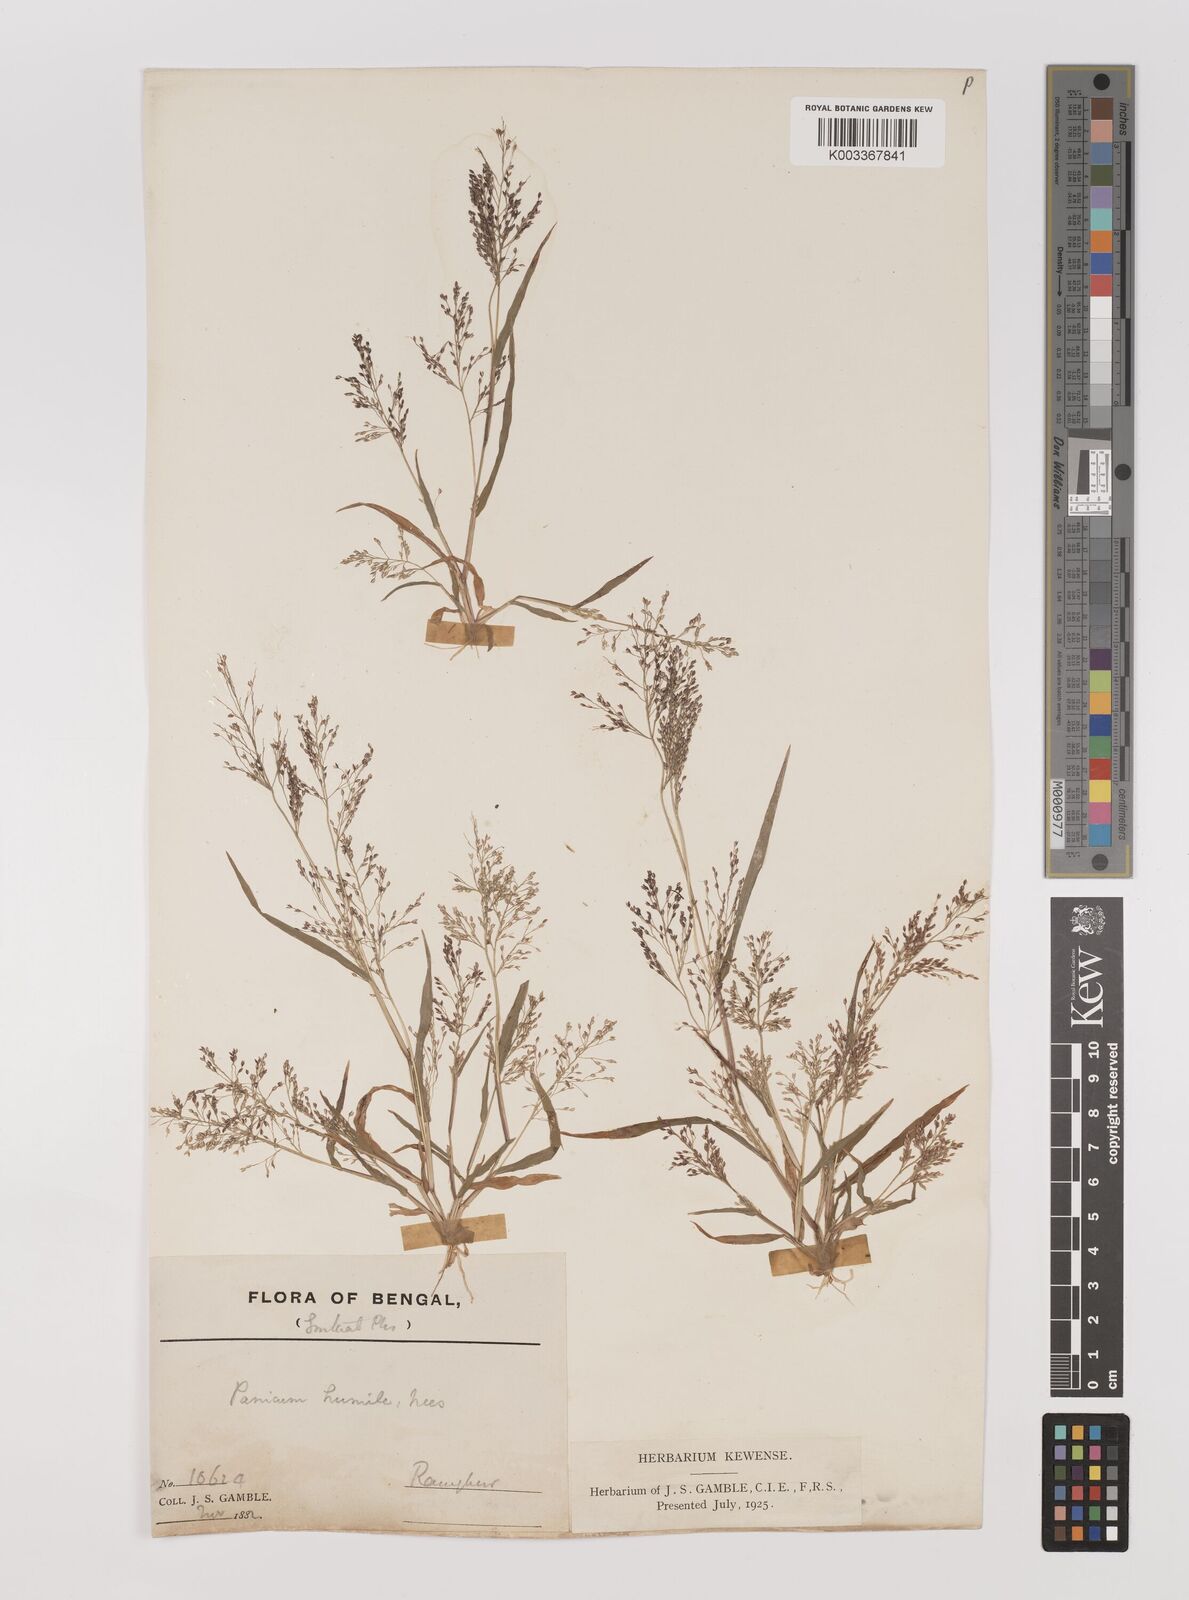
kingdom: Plantae
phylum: Tracheophyta
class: Liliopsida
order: Poales
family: Poaceae
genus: Panicum
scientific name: Panicum humile
